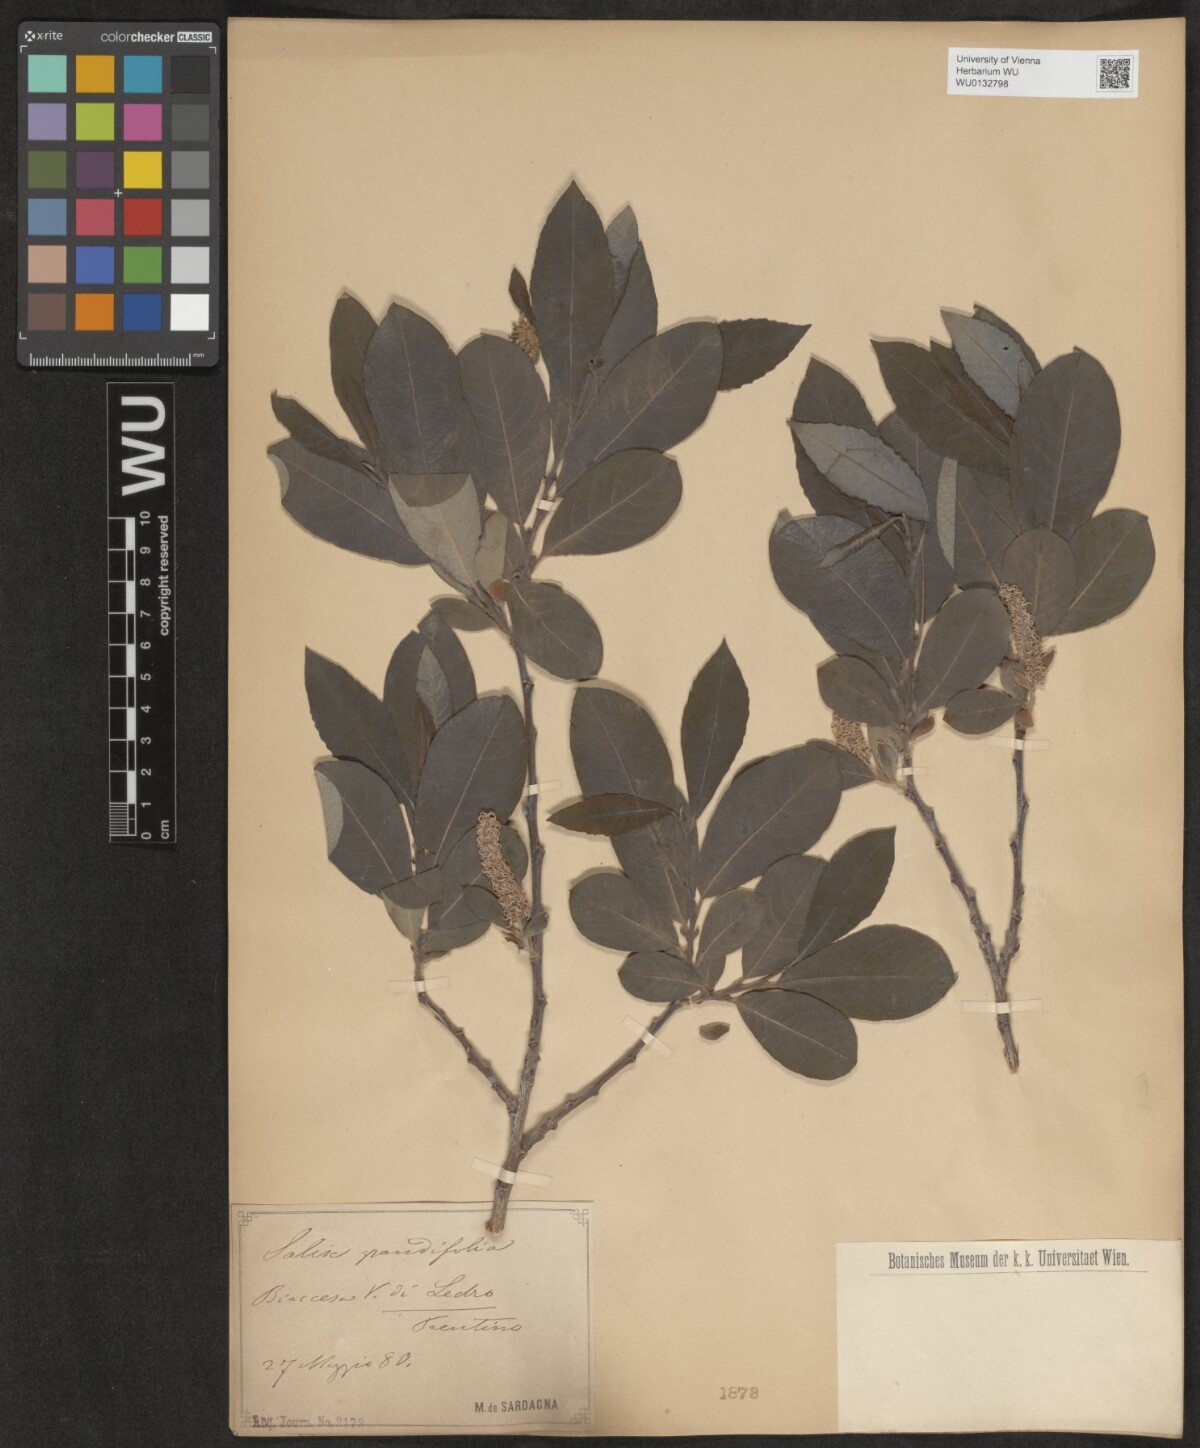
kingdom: Plantae
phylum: Tracheophyta
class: Magnoliopsida
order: Malpighiales
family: Salicaceae
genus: Salix
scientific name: Salix appendiculata
